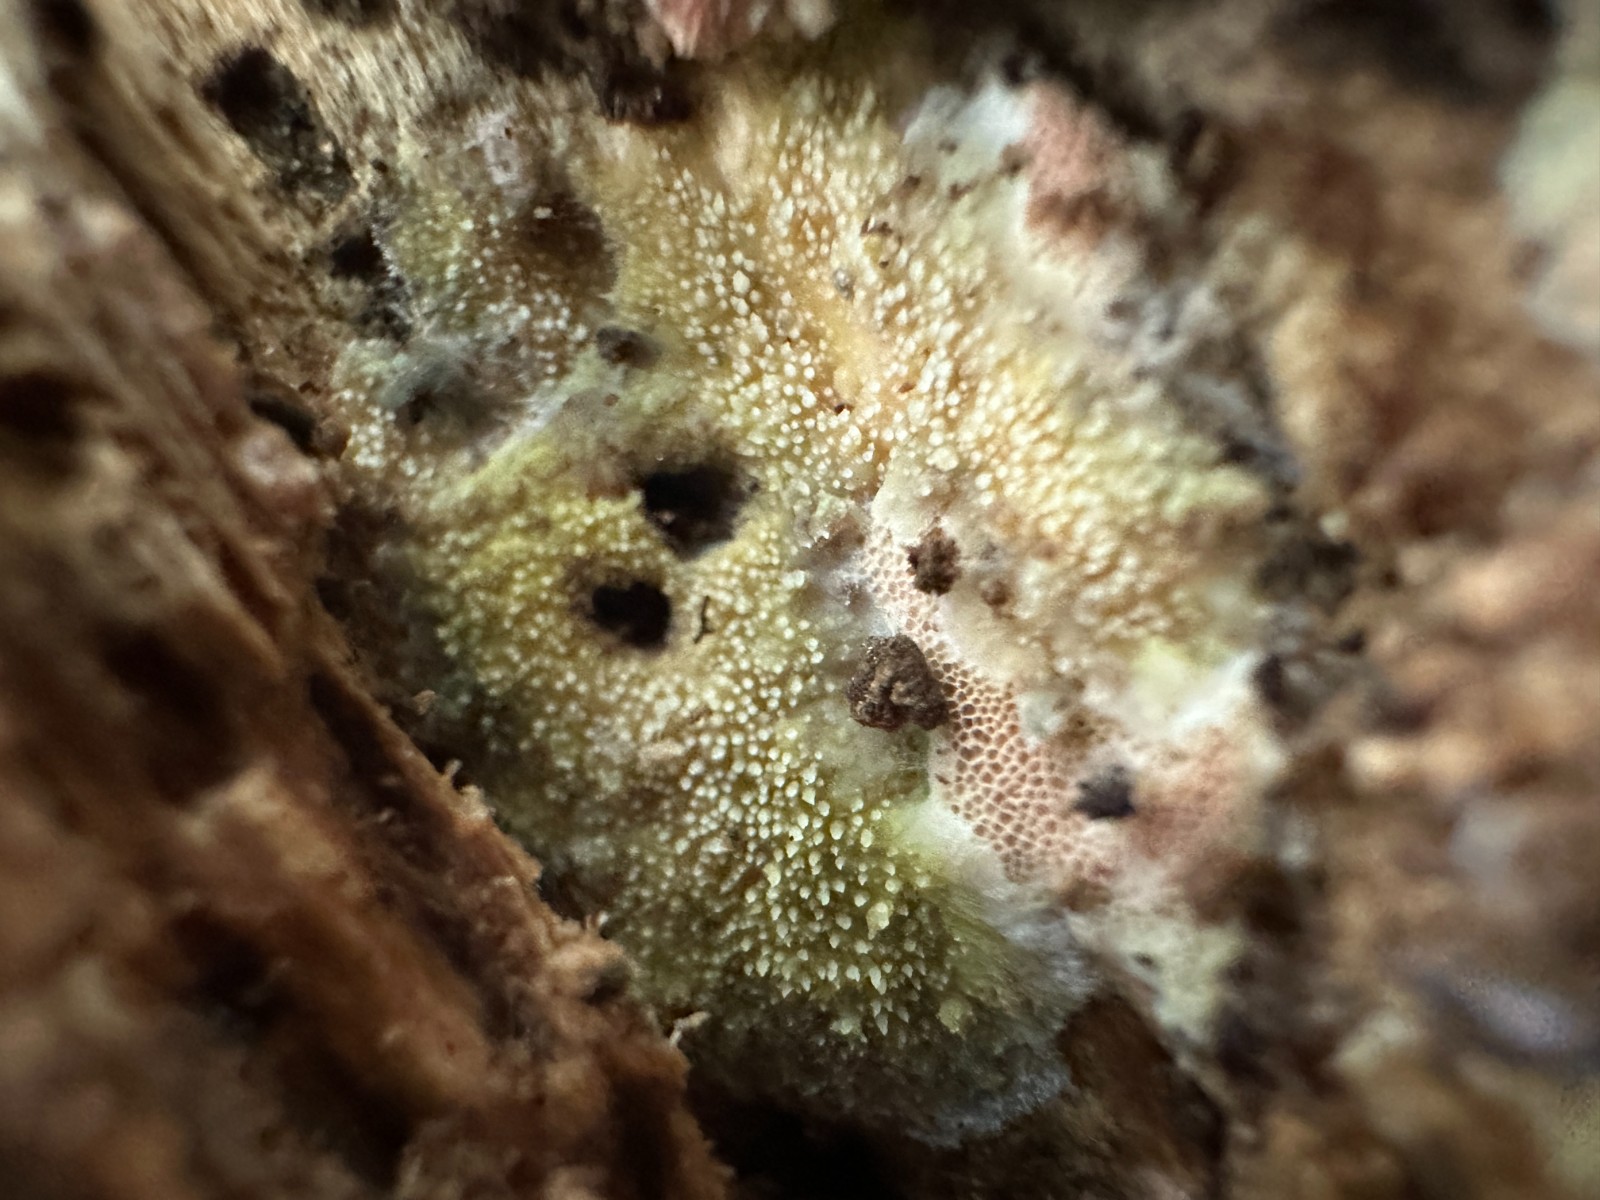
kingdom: Fungi
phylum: Basidiomycota
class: Agaricomycetes
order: Polyporales
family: Meruliaceae
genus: Mycoacia
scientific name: Mycoacia uda
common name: citrongul vokspig
